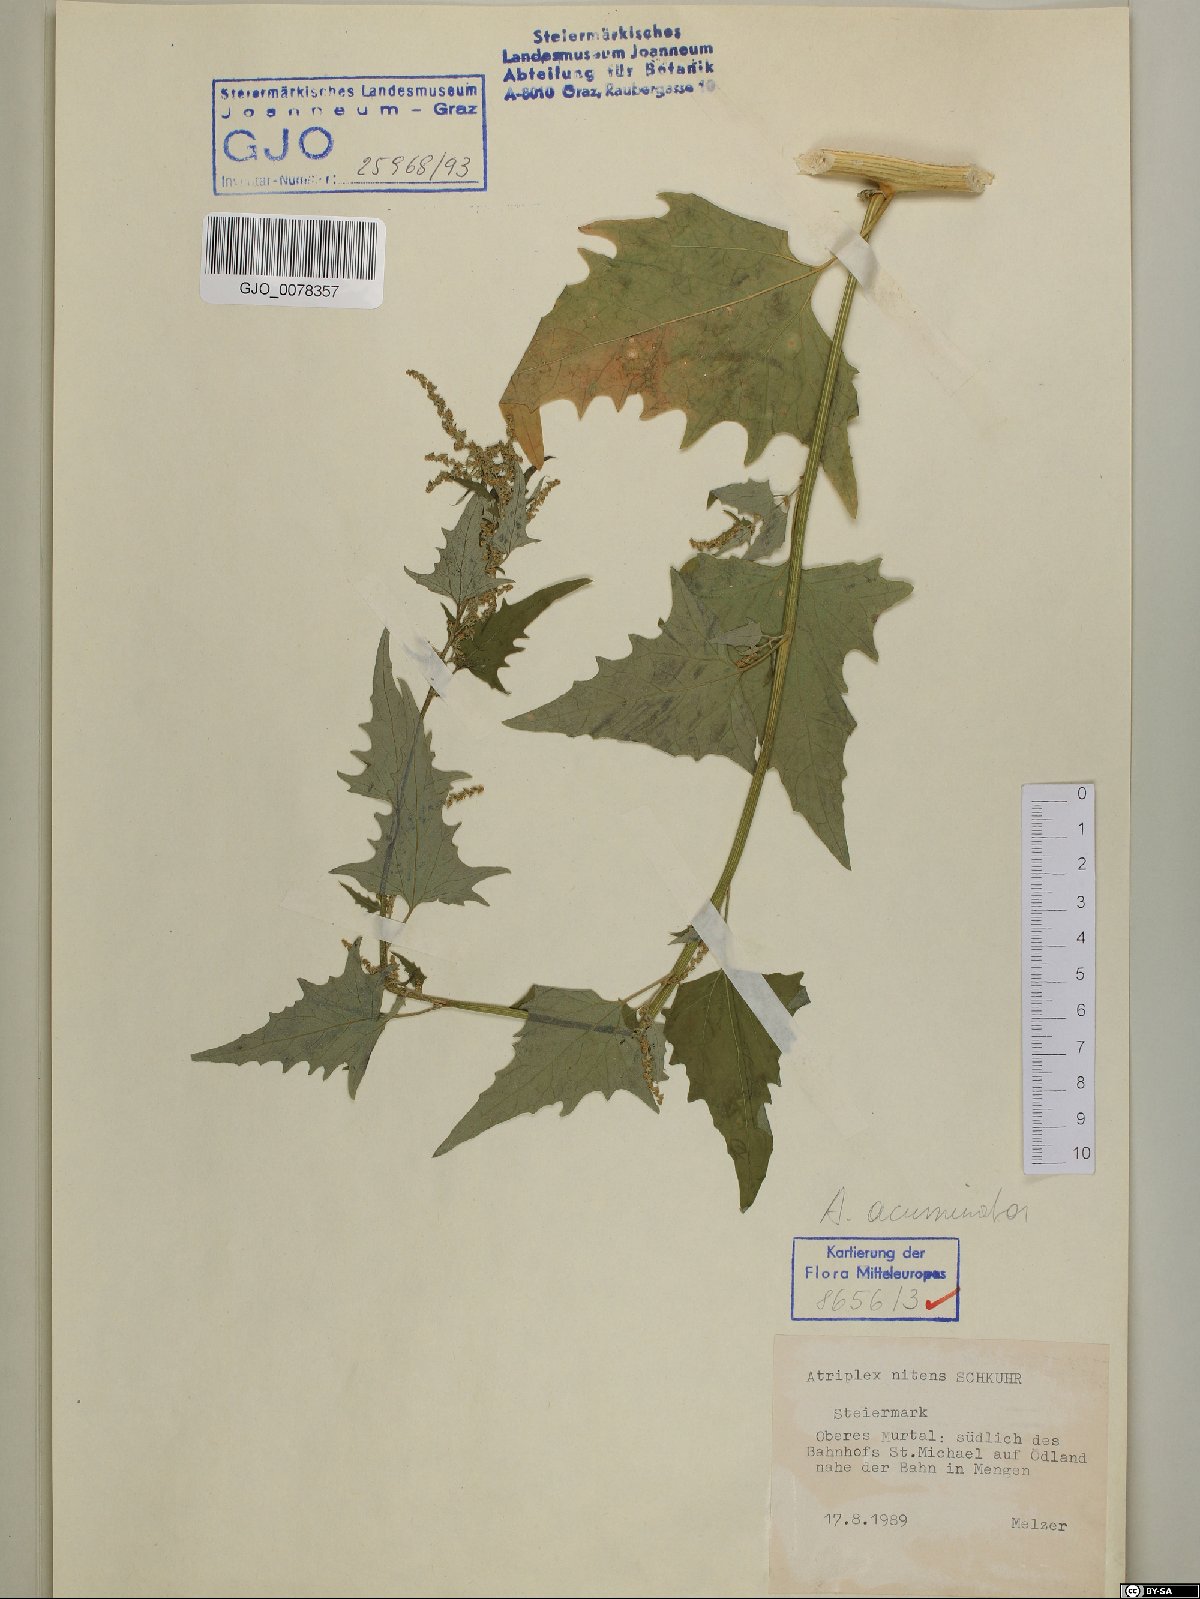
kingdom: Plantae
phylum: Tracheophyta
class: Magnoliopsida
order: Caryophyllales
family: Amaranthaceae
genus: Atriplex
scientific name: Atriplex sagittata
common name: Purple orache
